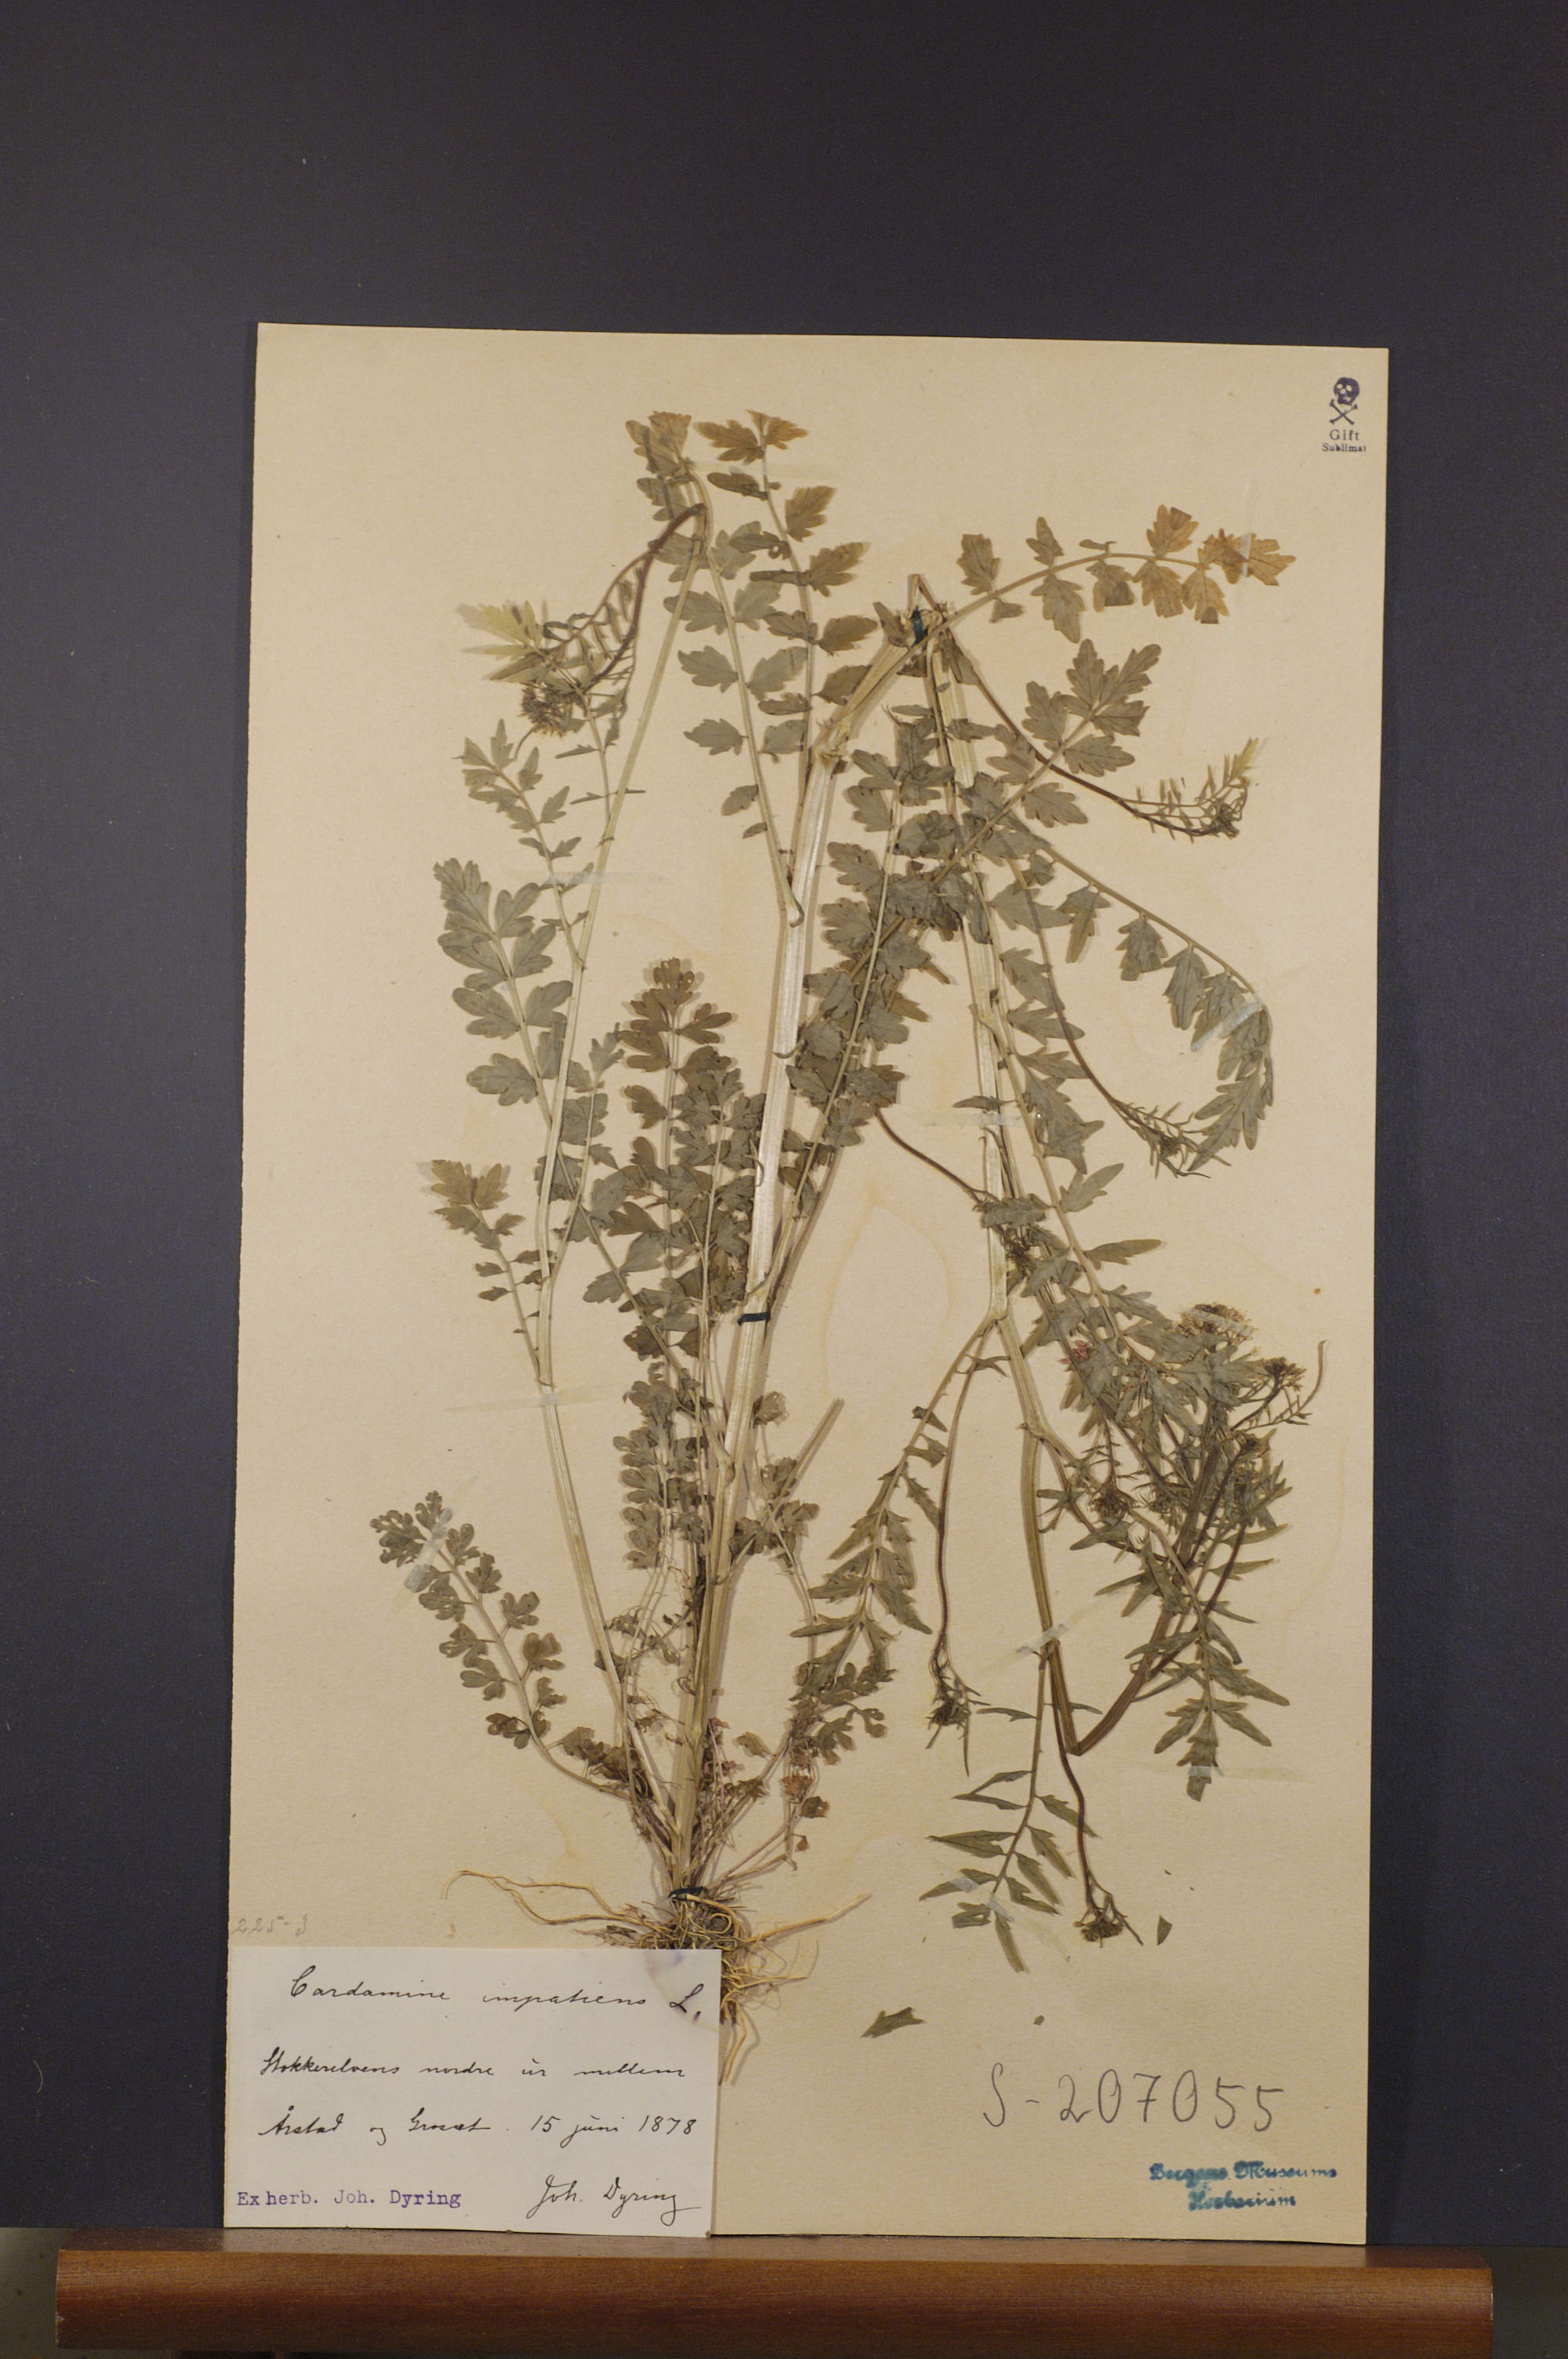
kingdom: Plantae
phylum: Tracheophyta
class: Magnoliopsida
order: Brassicales
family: Brassicaceae
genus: Cardamine
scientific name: Cardamine impatiens
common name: Narrow-leaved bitter-cress
